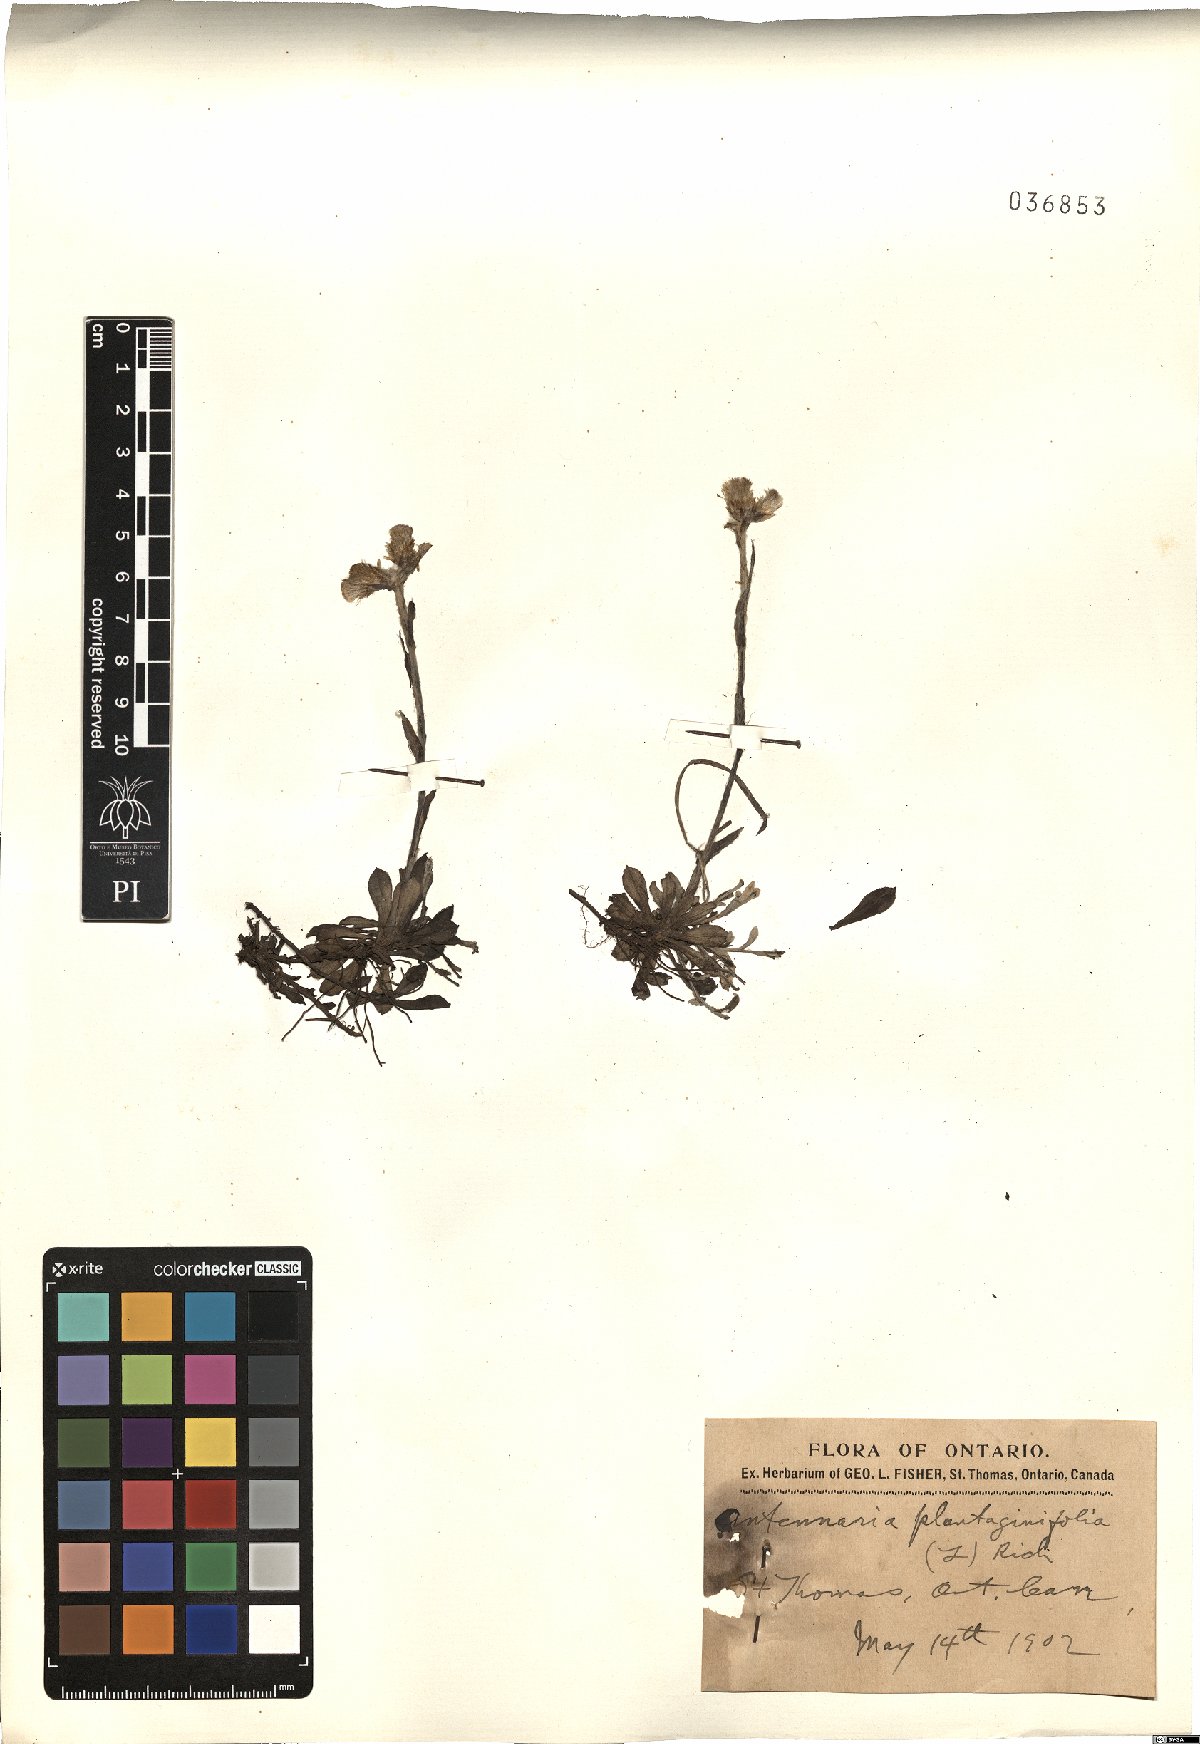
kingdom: Plantae
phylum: Tracheophyta
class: Magnoliopsida
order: Asterales
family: Asteraceae
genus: Antennaria
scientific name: Antennaria plantaginifolia
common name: Plantain-leaved pussytoes
